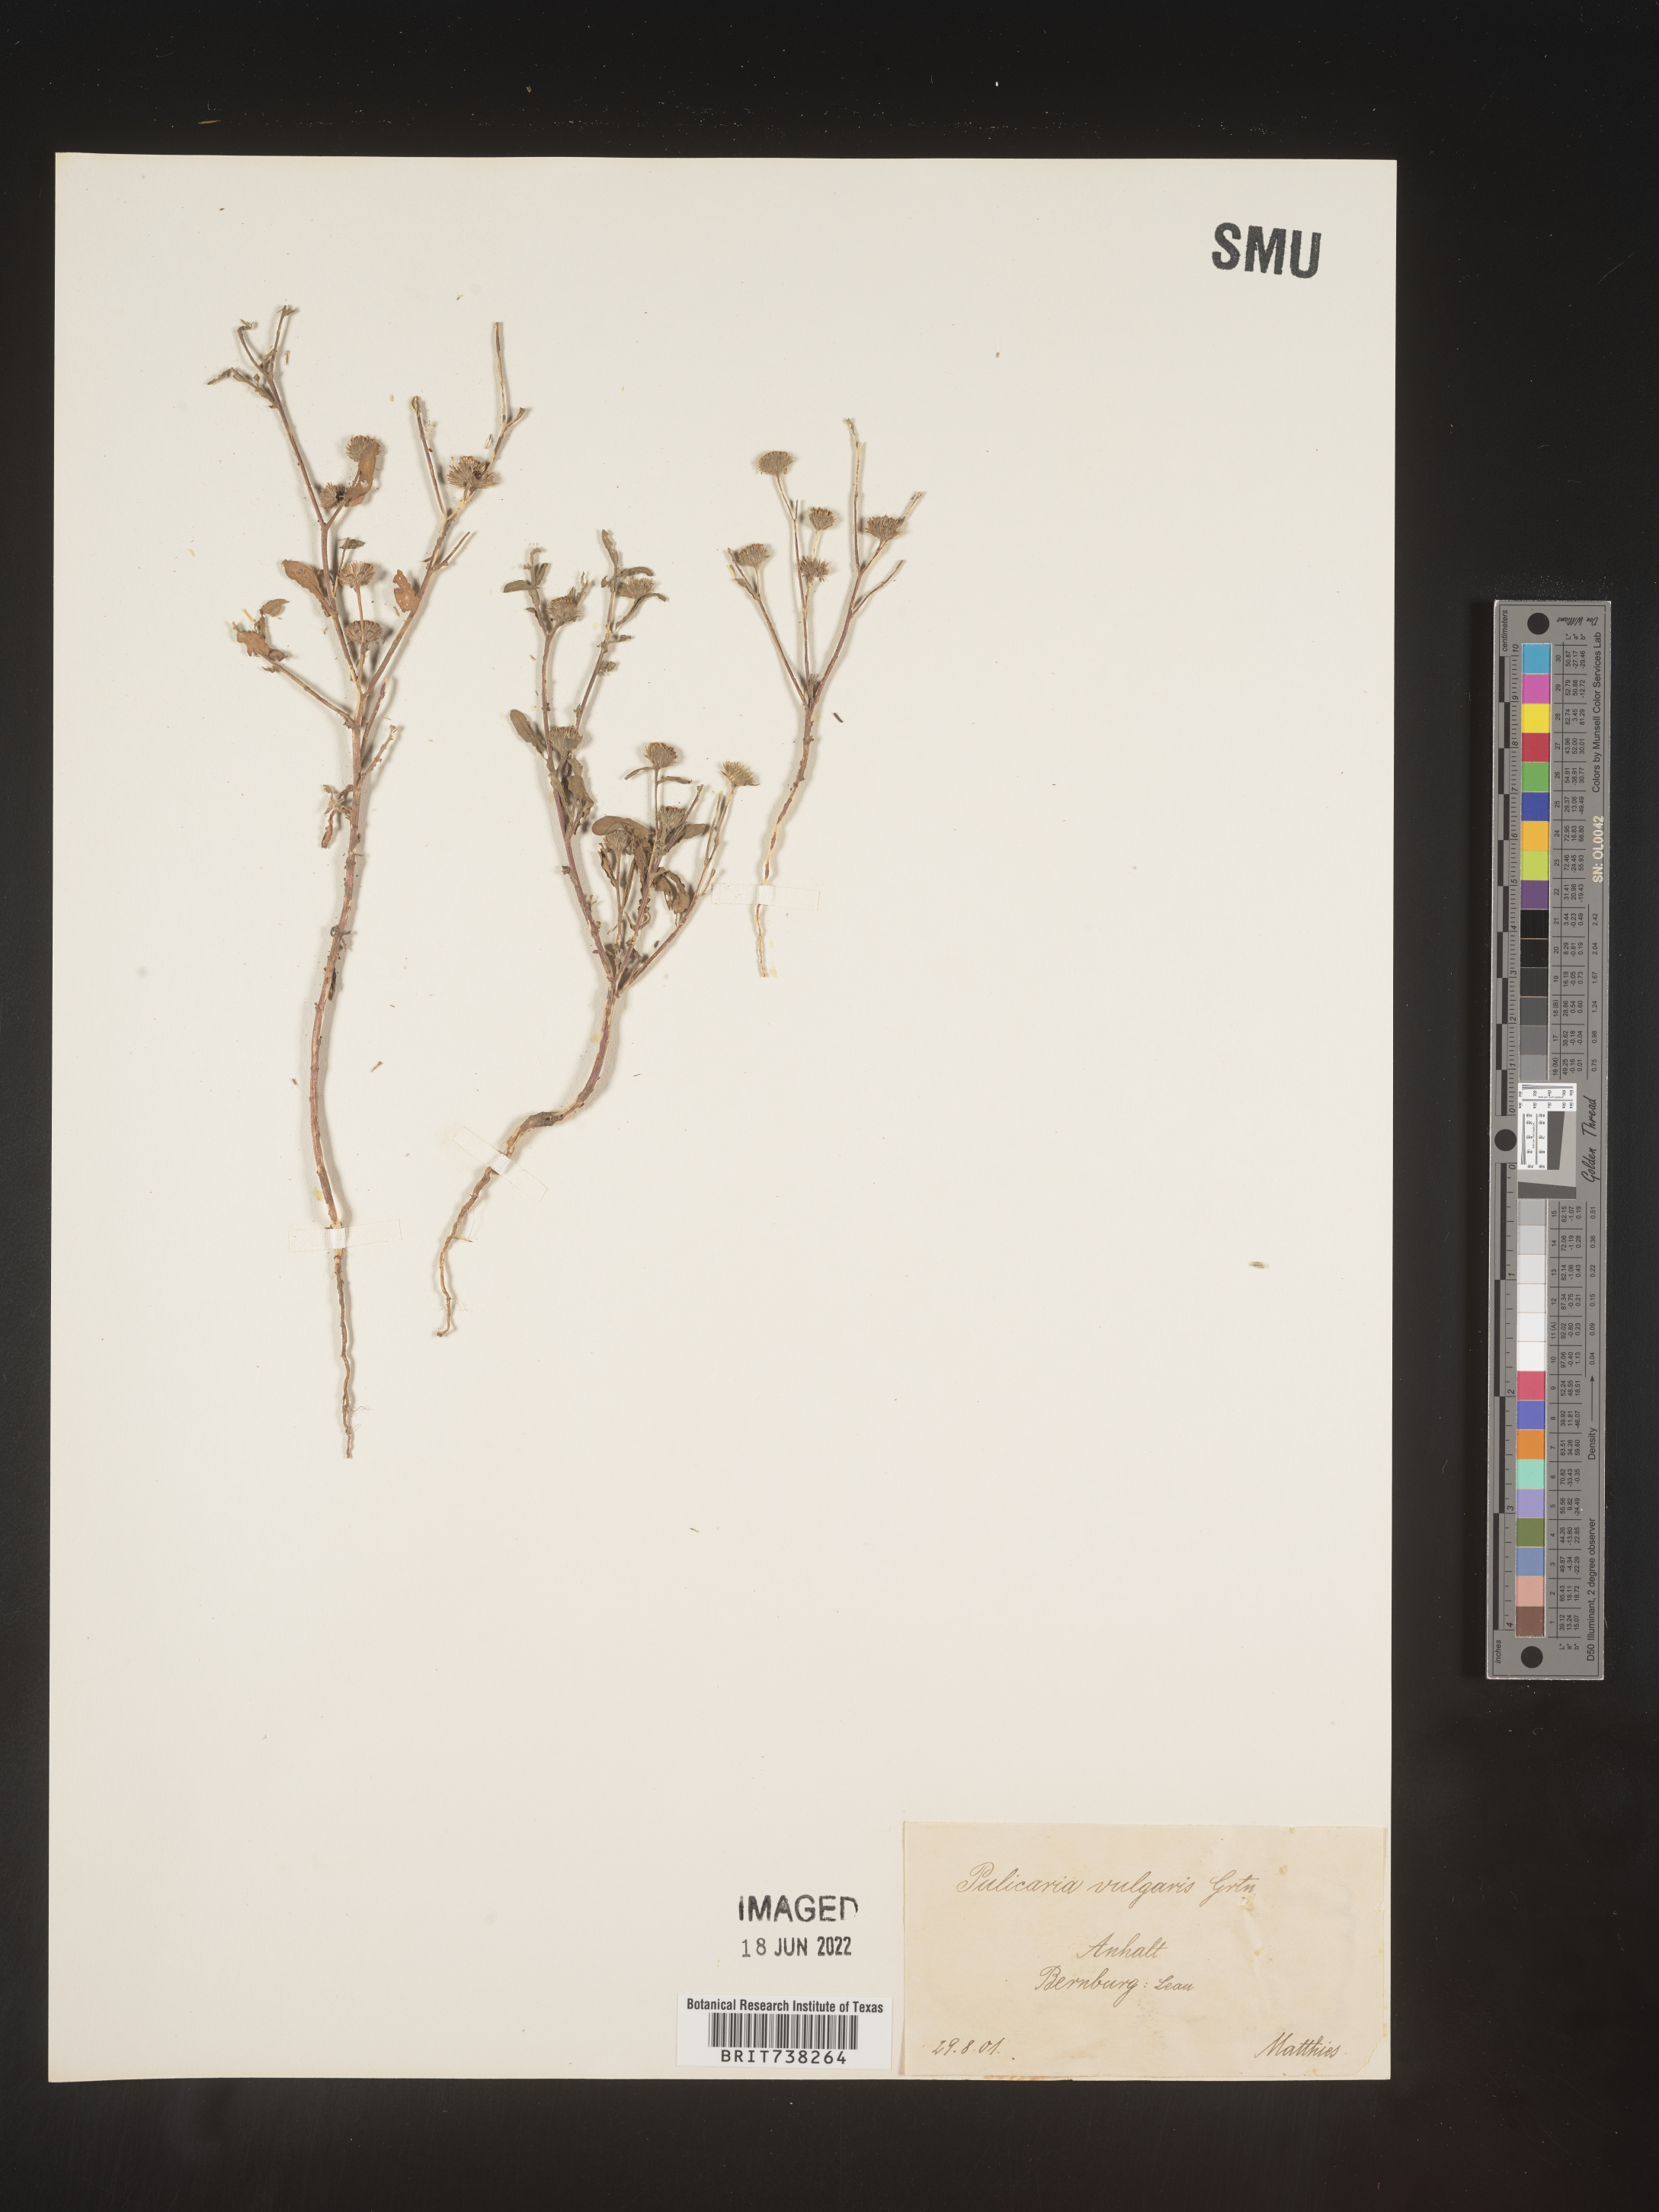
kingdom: Plantae
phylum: Tracheophyta
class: Magnoliopsida
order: Asterales
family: Asteraceae
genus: Pulicaria
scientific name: Pulicaria
